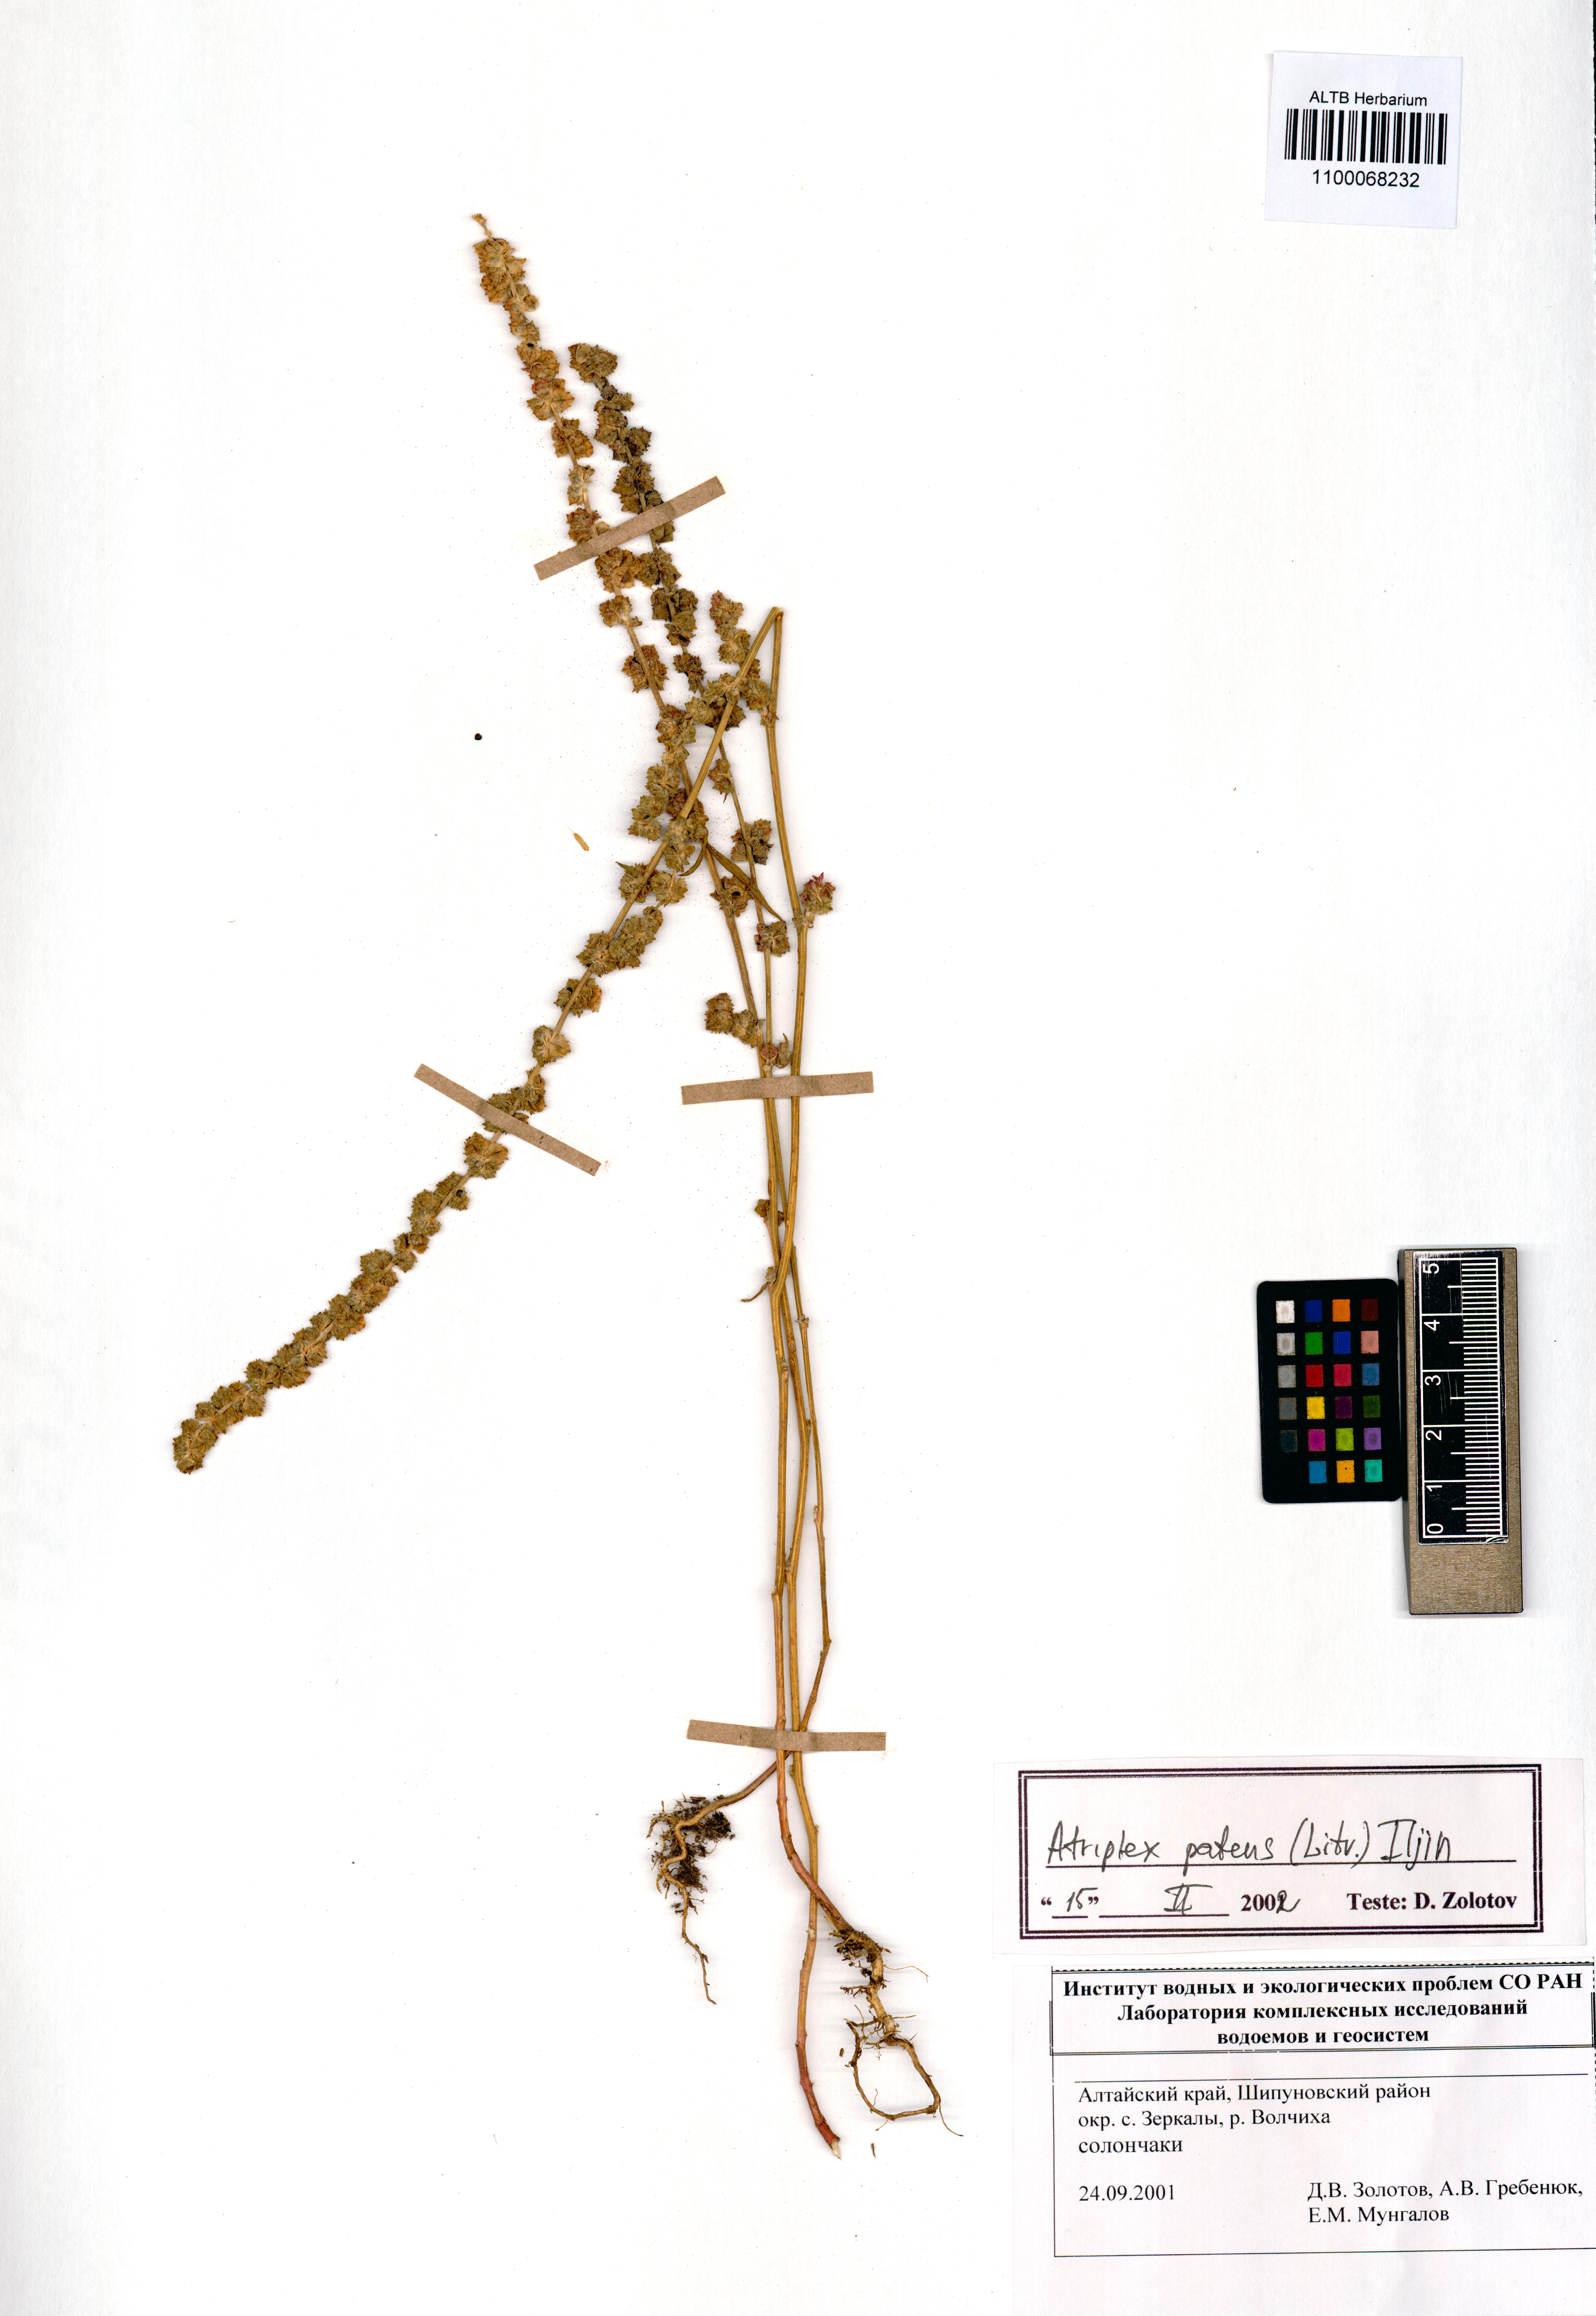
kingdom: Plantae
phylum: Tracheophyta
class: Magnoliopsida
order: Caryophyllales
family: Amaranthaceae
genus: Atriplex
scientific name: Atriplex patens
